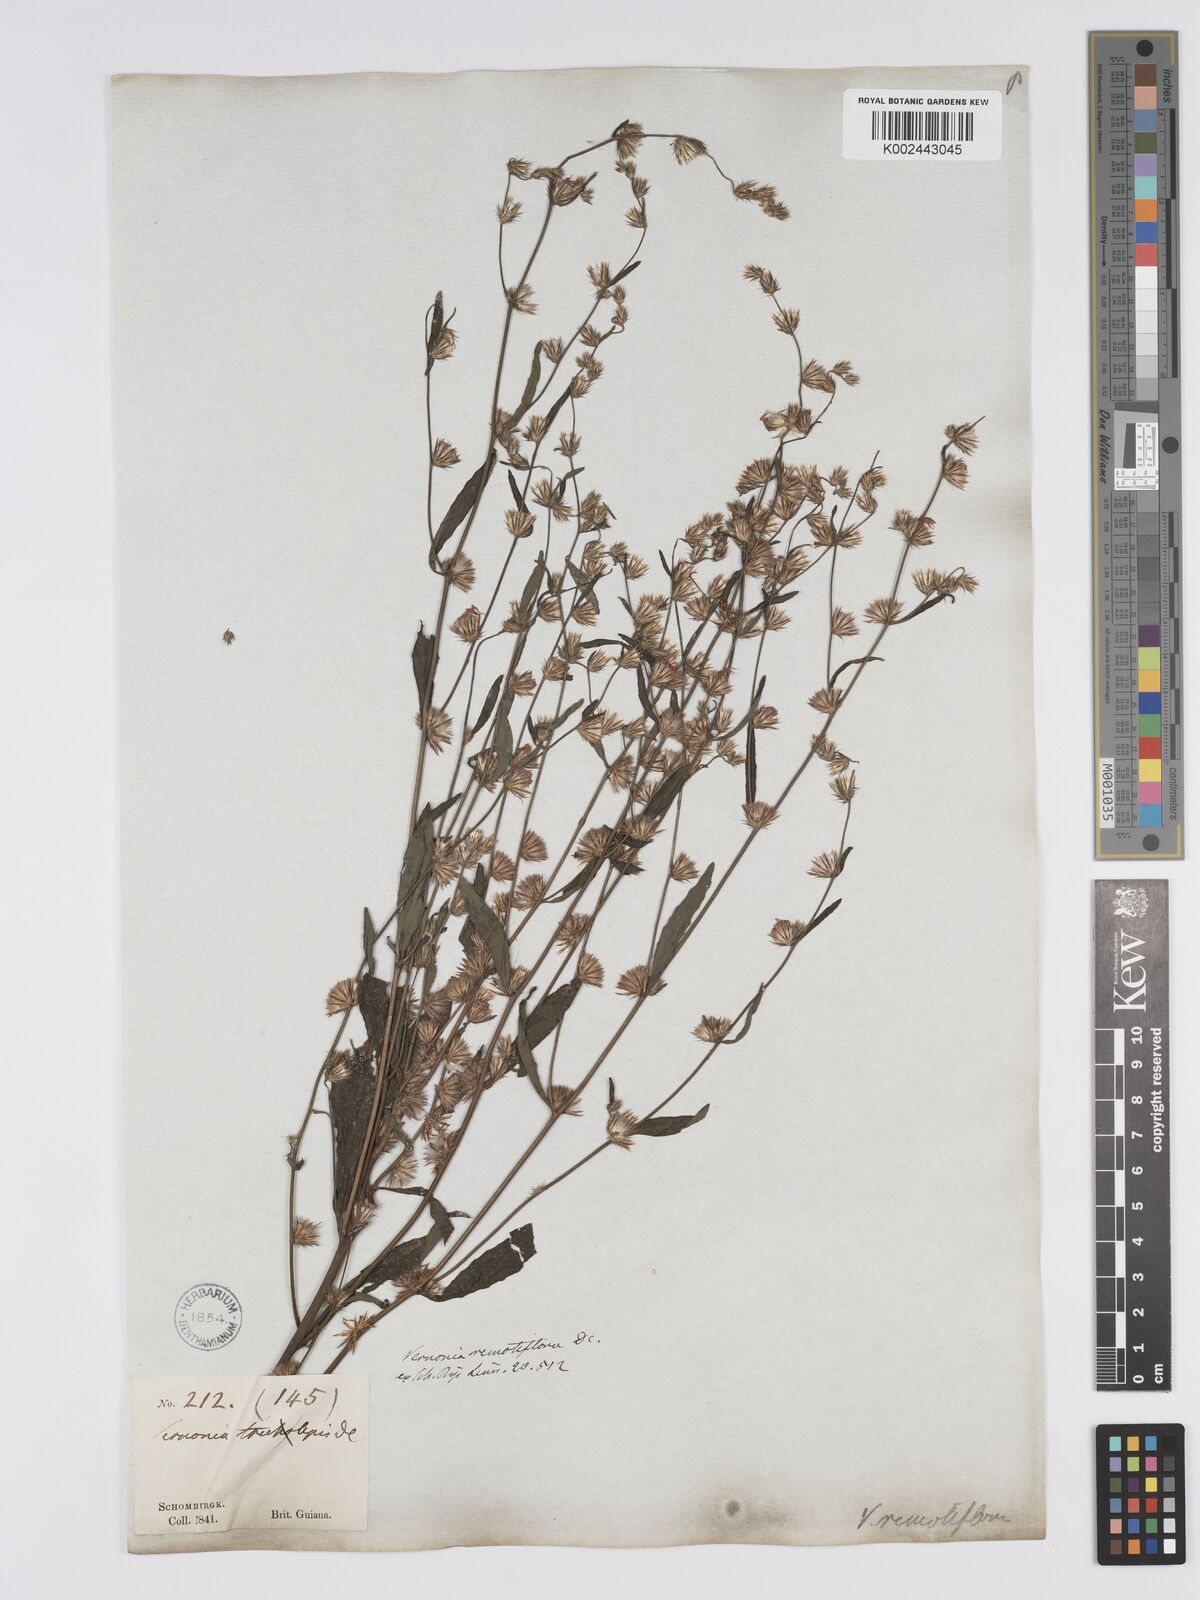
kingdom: Plantae
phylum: Tracheophyta
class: Magnoliopsida
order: Asterales
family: Asteraceae
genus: Lepidaploa
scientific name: Lepidaploa remotiflora
